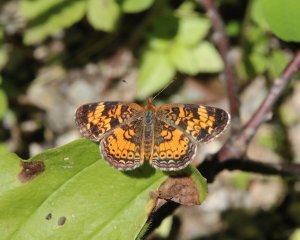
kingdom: Animalia
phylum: Arthropoda
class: Insecta
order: Lepidoptera
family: Nymphalidae
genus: Phyciodes
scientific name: Phyciodes tharos
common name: Pearl Crescent
